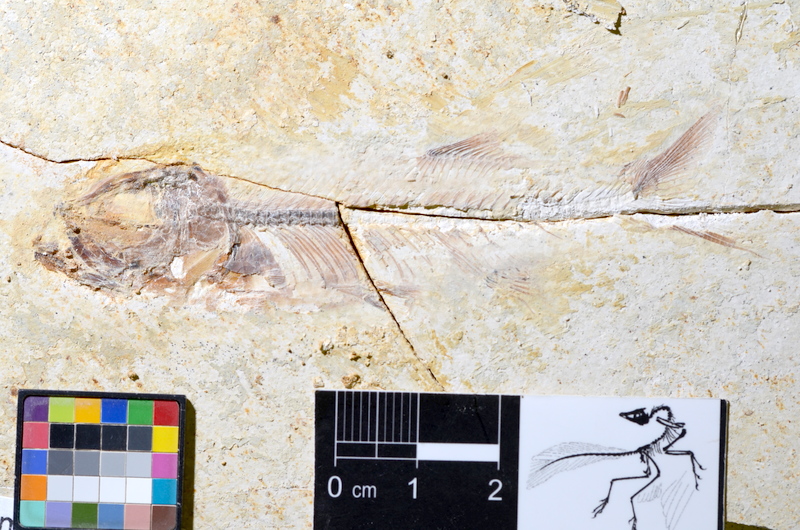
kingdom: Animalia
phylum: Chordata
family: Ascalaboidae
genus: Ebertichthys
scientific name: Ebertichthys ettlingensis
